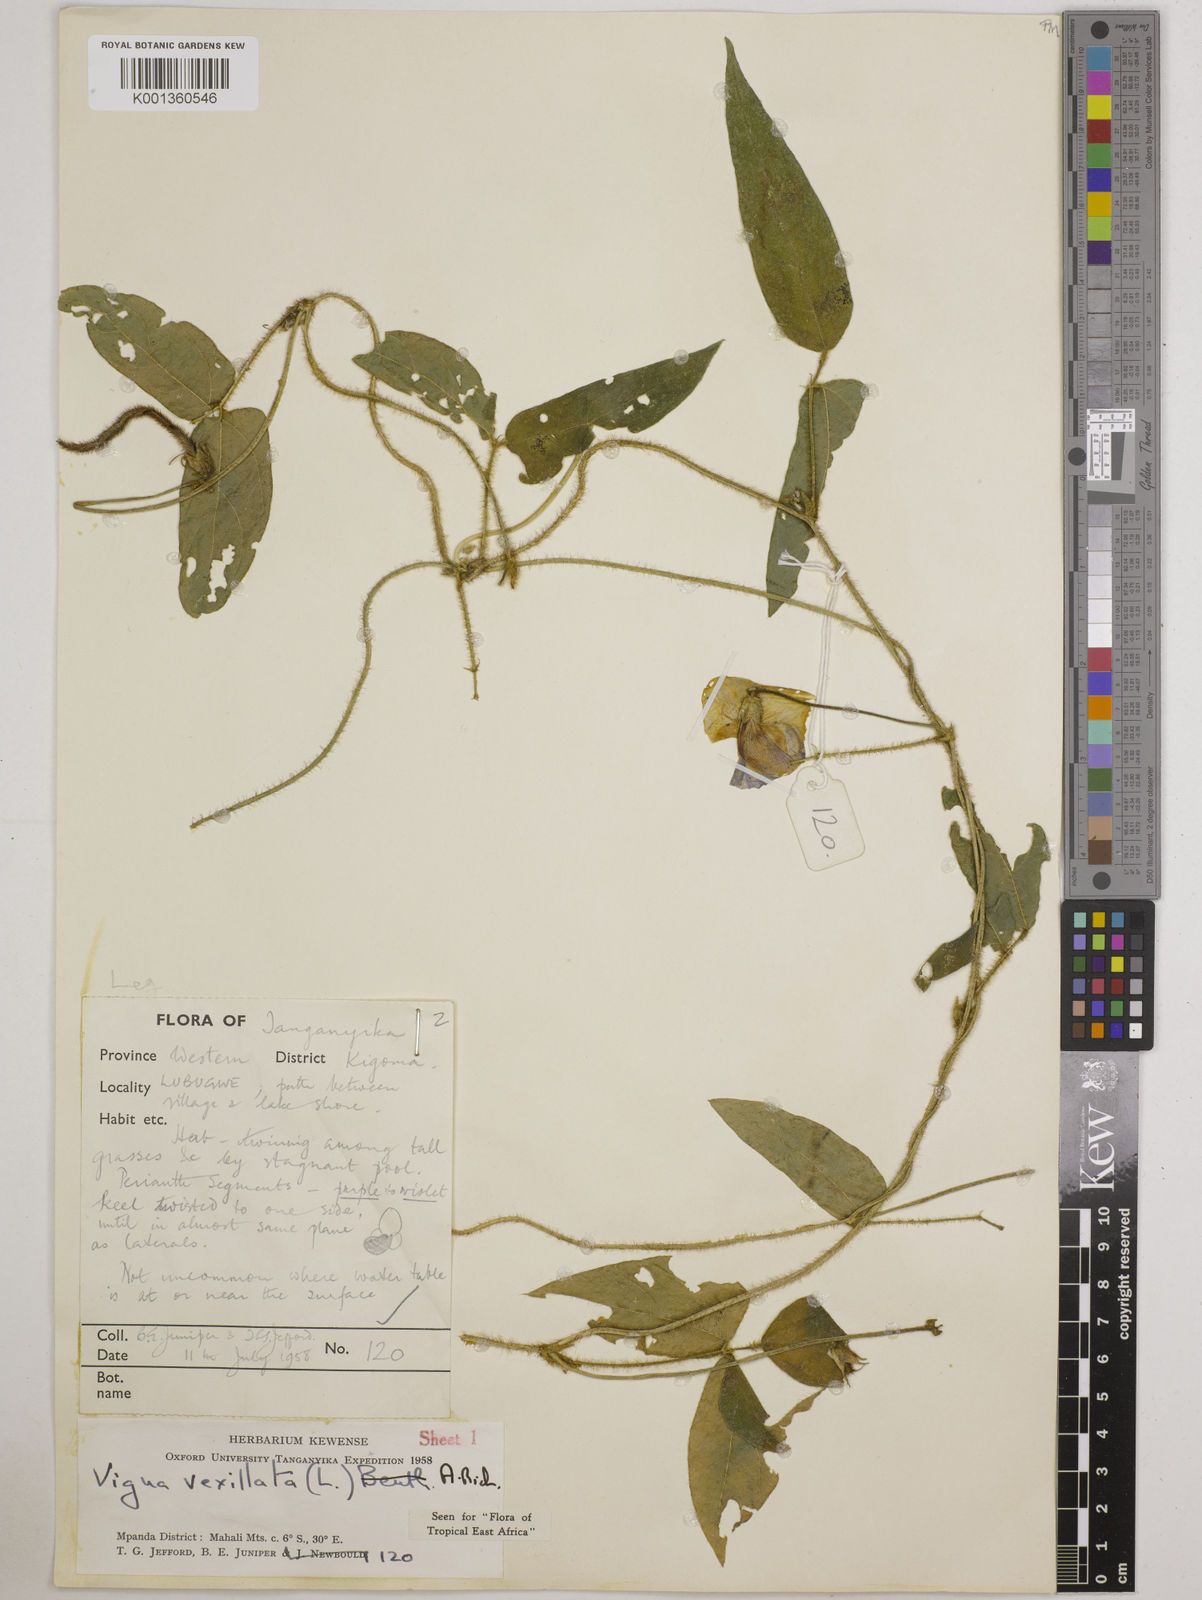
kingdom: Plantae
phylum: Tracheophyta
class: Magnoliopsida
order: Fabales
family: Fabaceae
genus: Vigna
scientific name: Vigna vexillata
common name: Zombi pea
